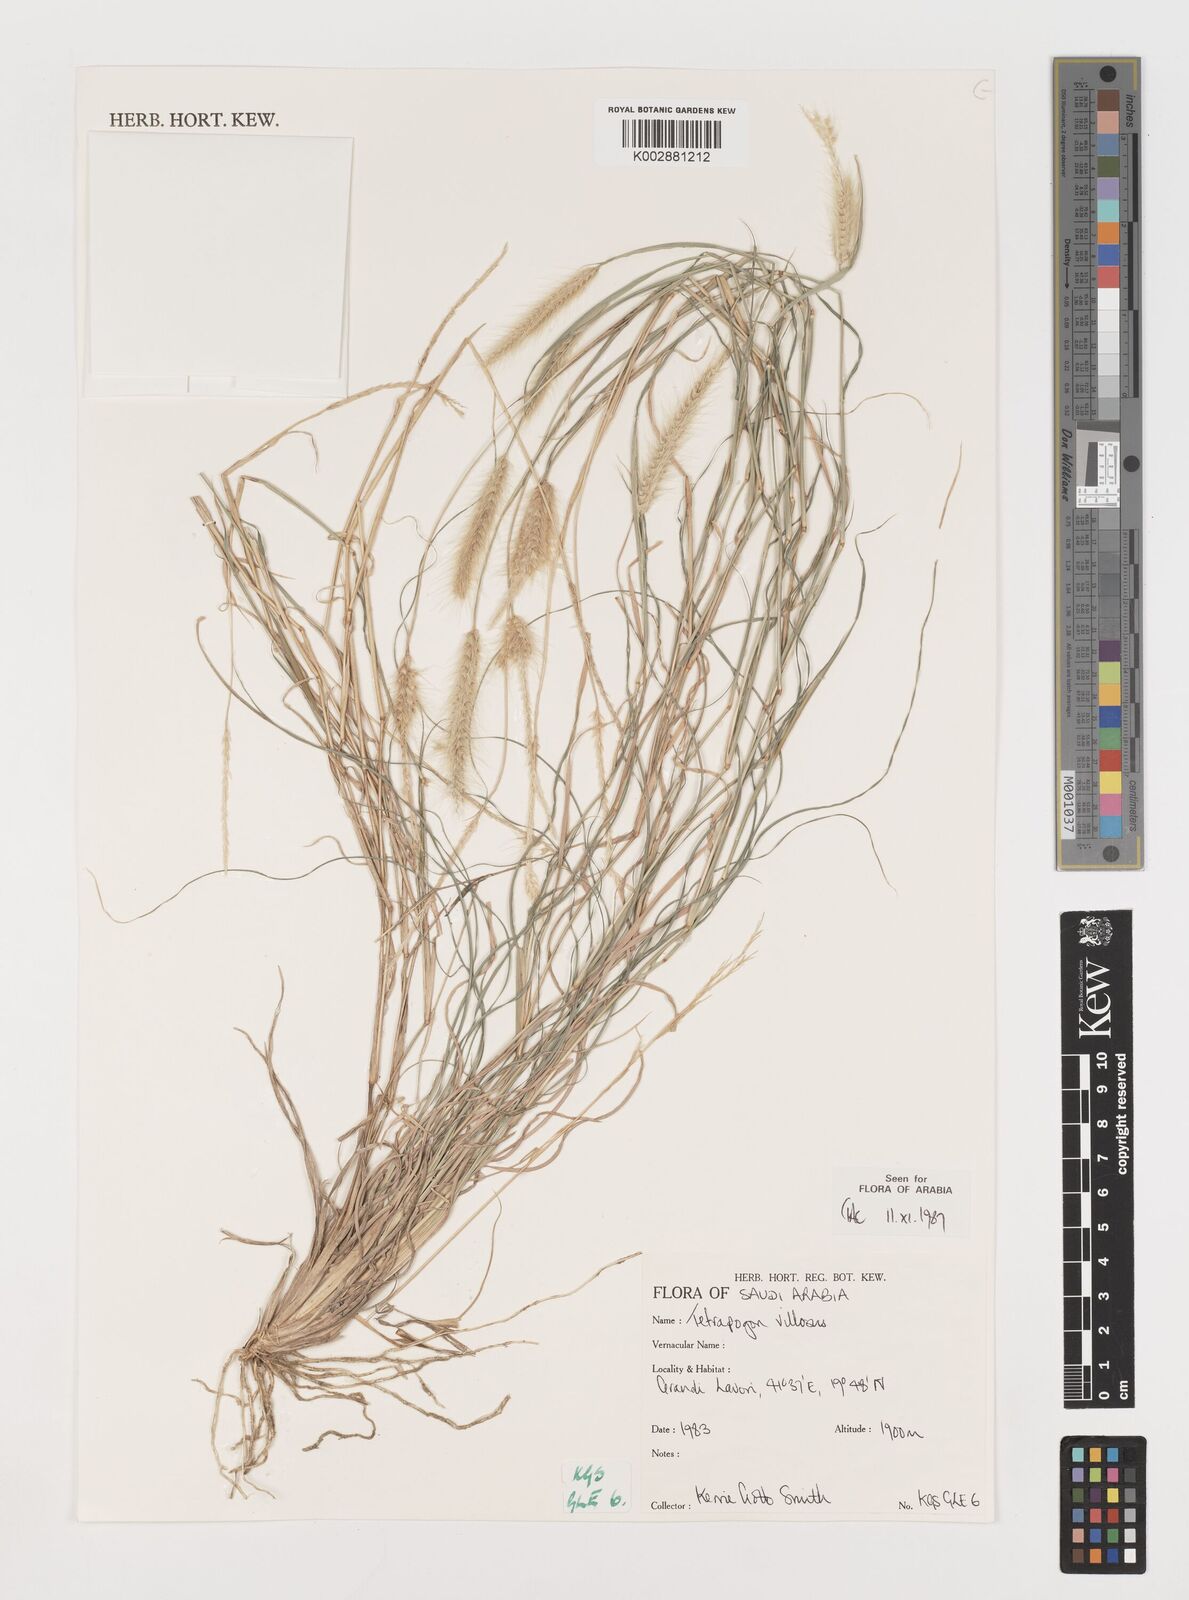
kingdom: Plantae
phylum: Tracheophyta
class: Liliopsida
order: Poales
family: Poaceae
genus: Tetrapogon
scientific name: Tetrapogon villosus
